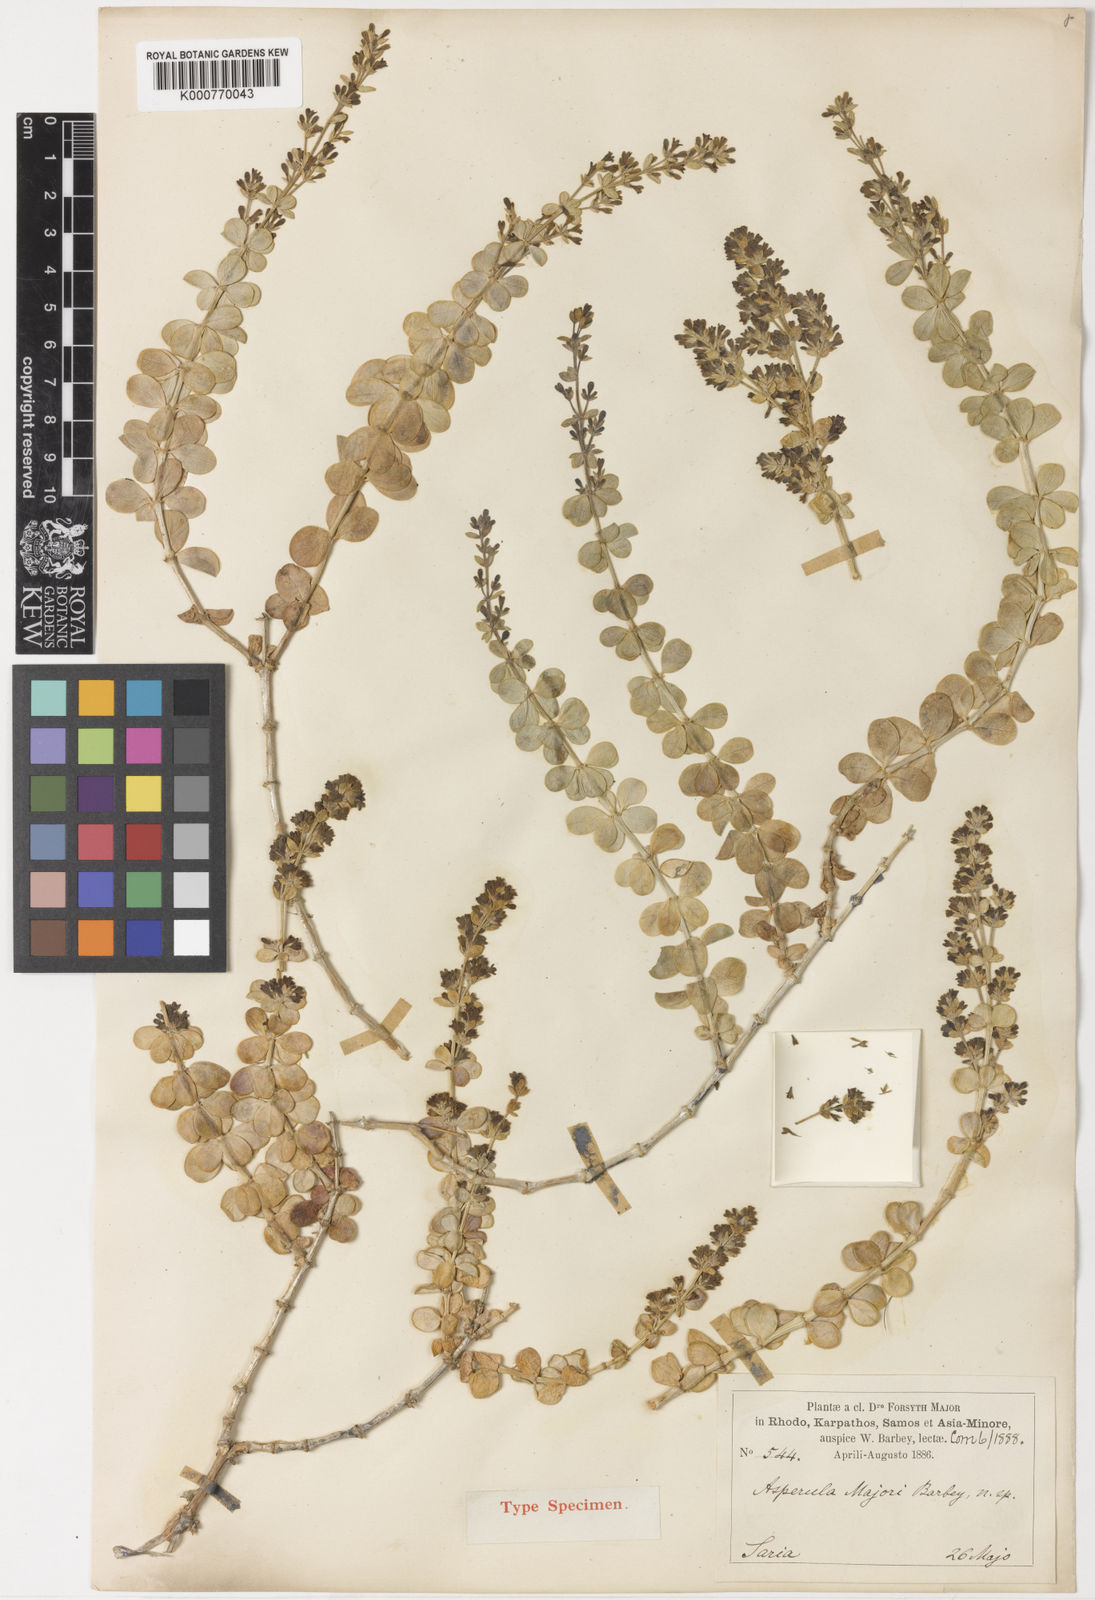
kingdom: Plantae
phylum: Tracheophyta
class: Magnoliopsida
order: Gentianales
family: Rubiaceae
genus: Asperula
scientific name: Asperula tournefortii
